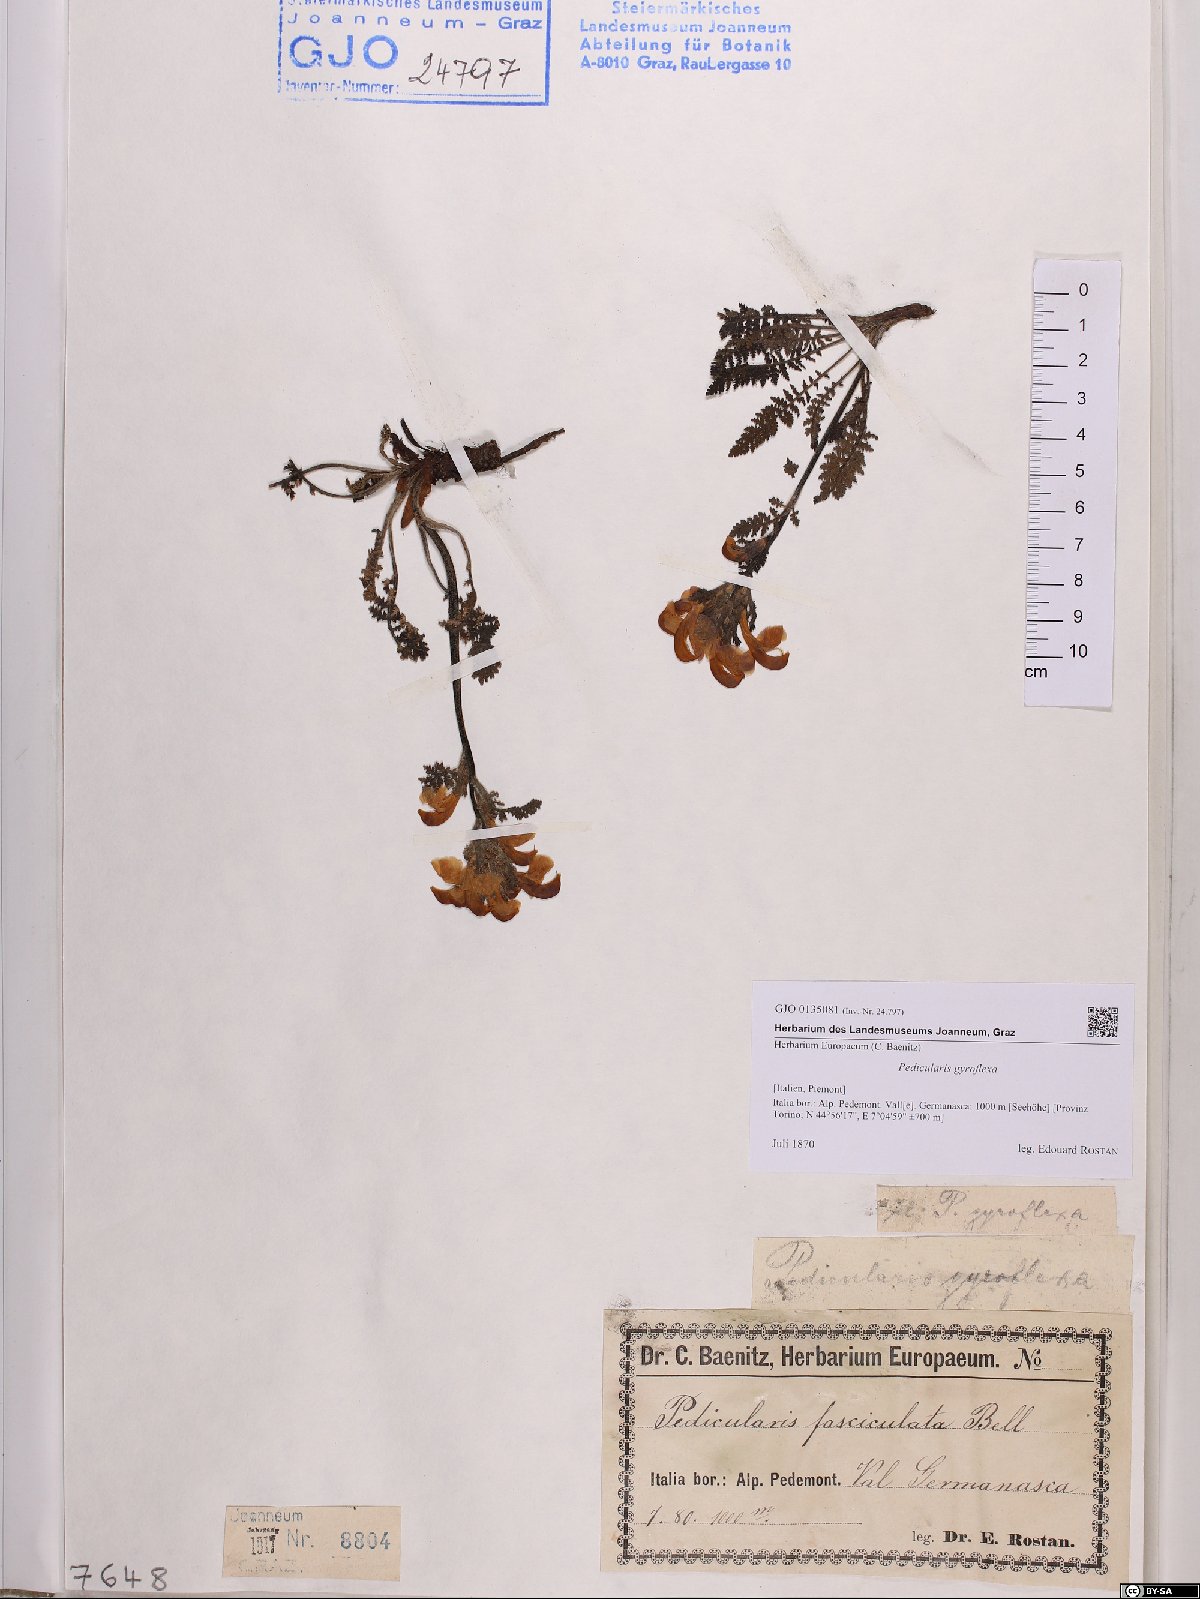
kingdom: Plantae
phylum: Tracheophyta
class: Magnoliopsida
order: Lamiales
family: Orobanchaceae
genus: Pedicularis
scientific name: Pedicularis gyroflexa
